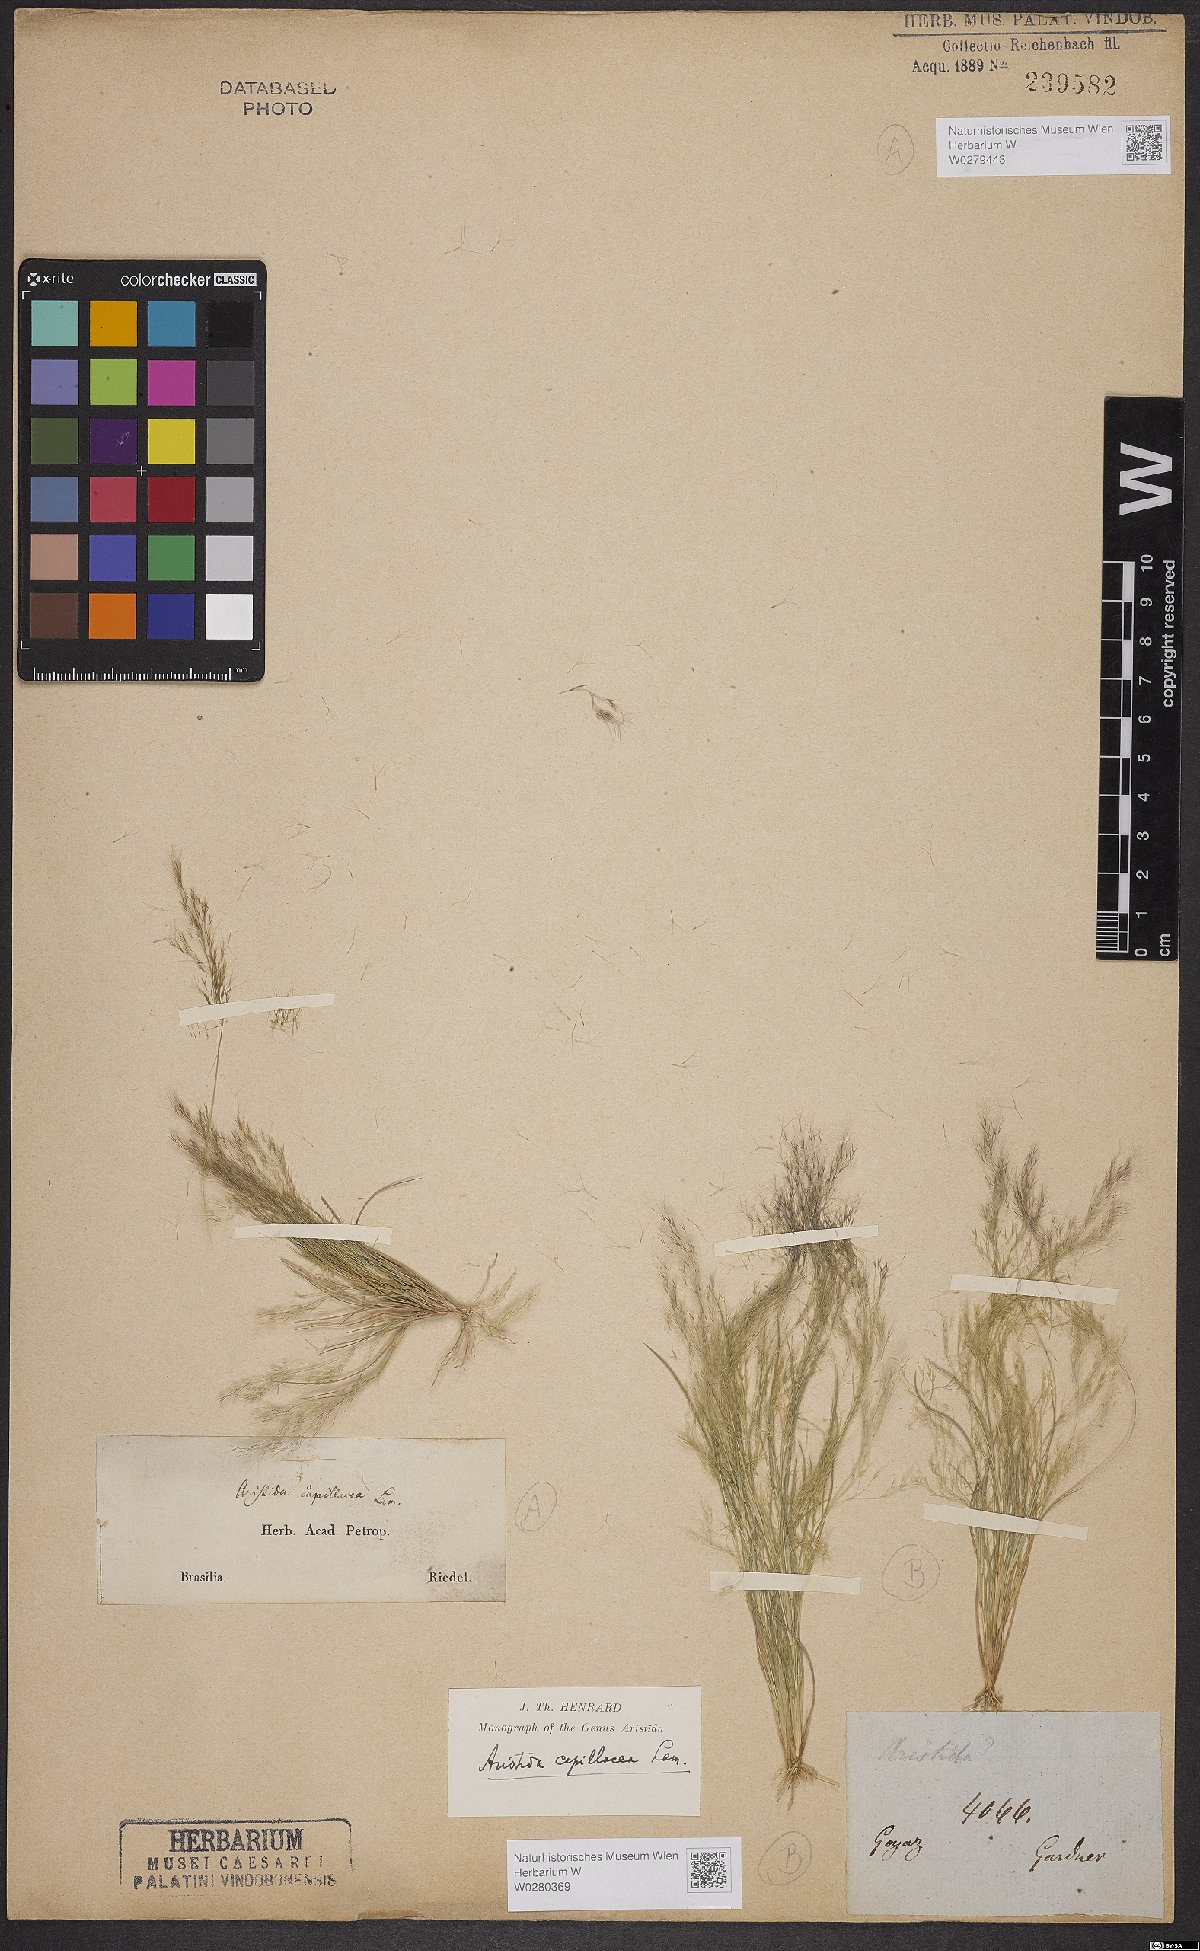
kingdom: Plantae
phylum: Tracheophyta
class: Liliopsida
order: Poales
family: Poaceae
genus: Aristida
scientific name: Aristida capillacea
